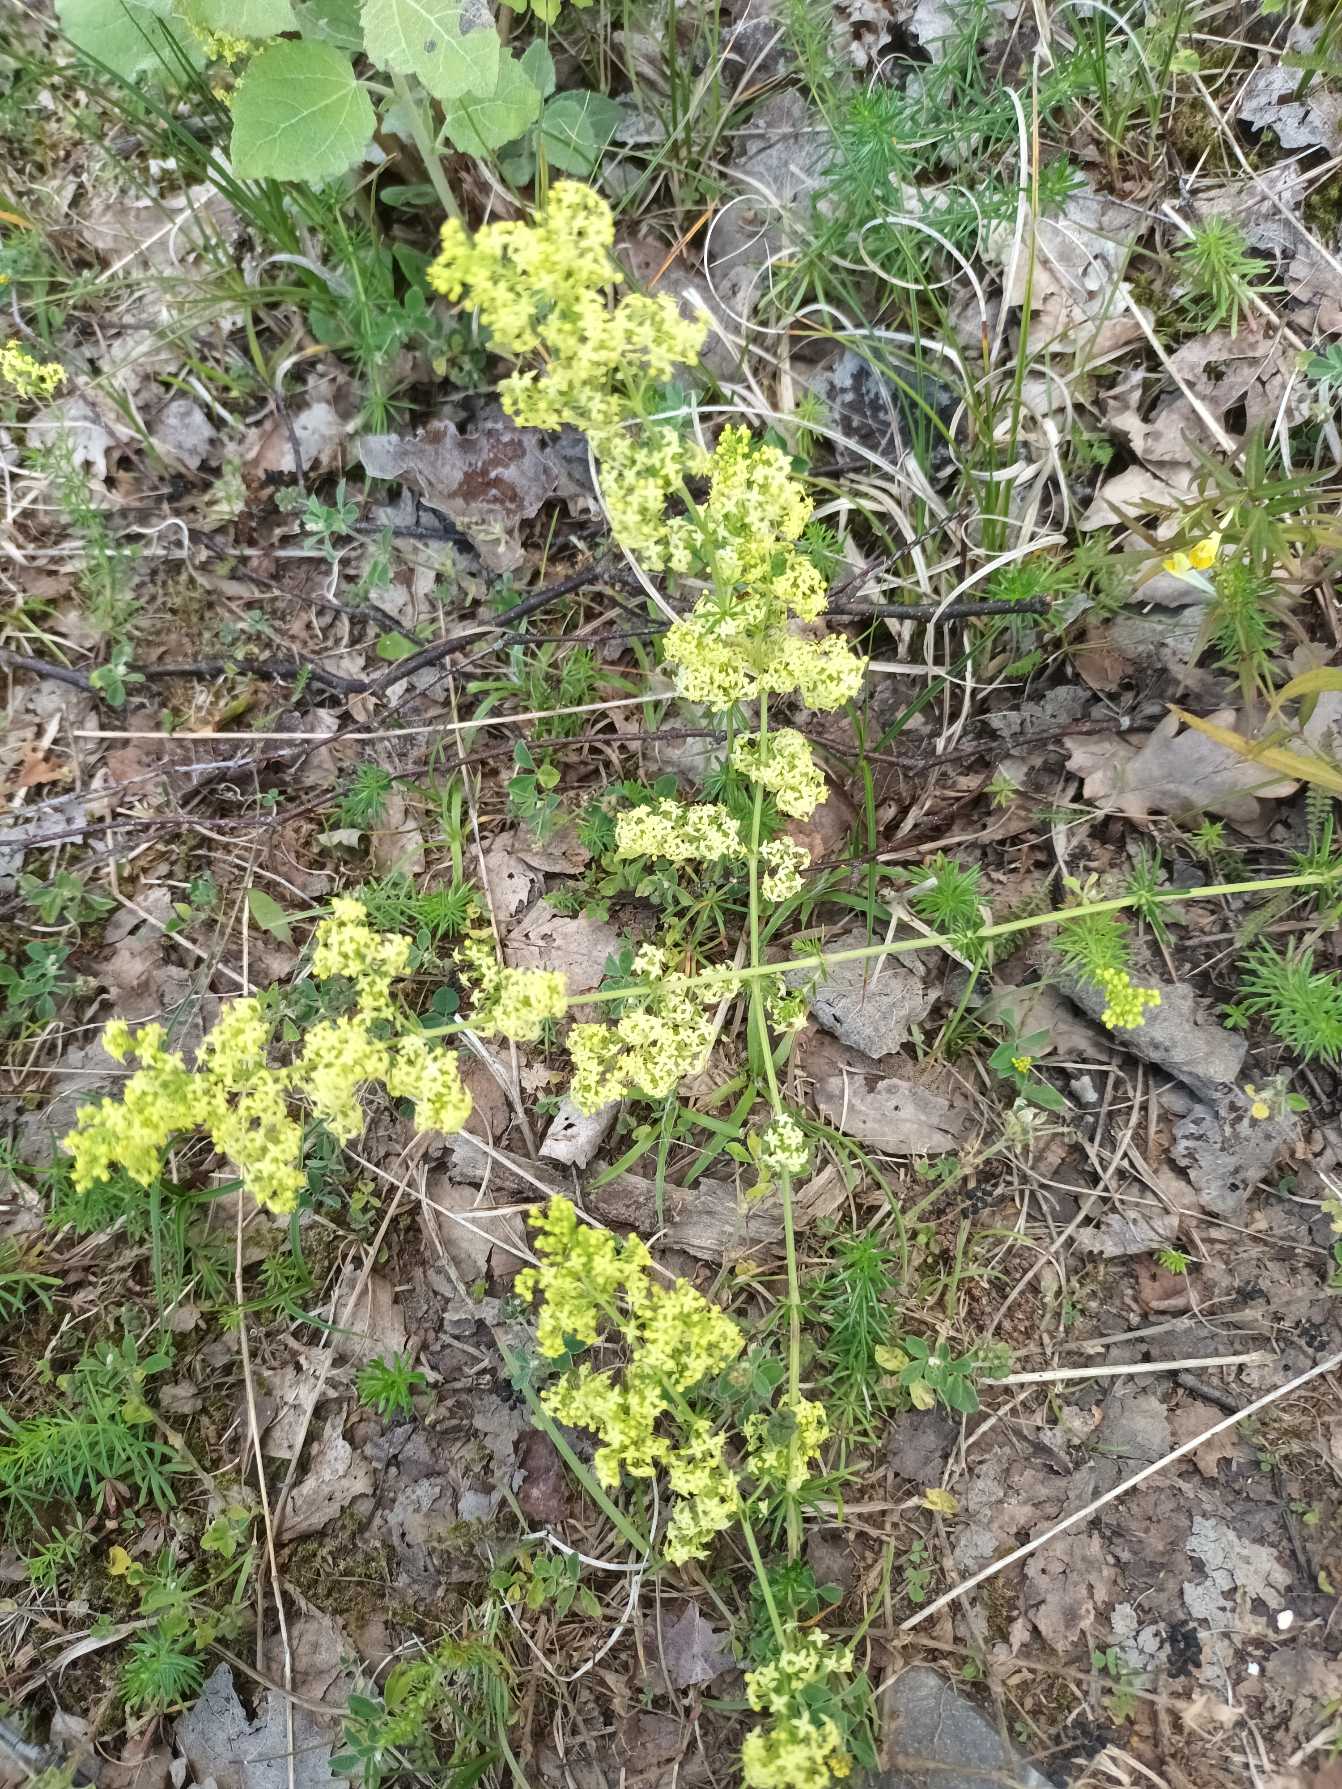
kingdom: Plantae
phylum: Tracheophyta
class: Magnoliopsida
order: Gentianales
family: Rubiaceae
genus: Galium
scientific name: Galium
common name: Hvidgul snerre
